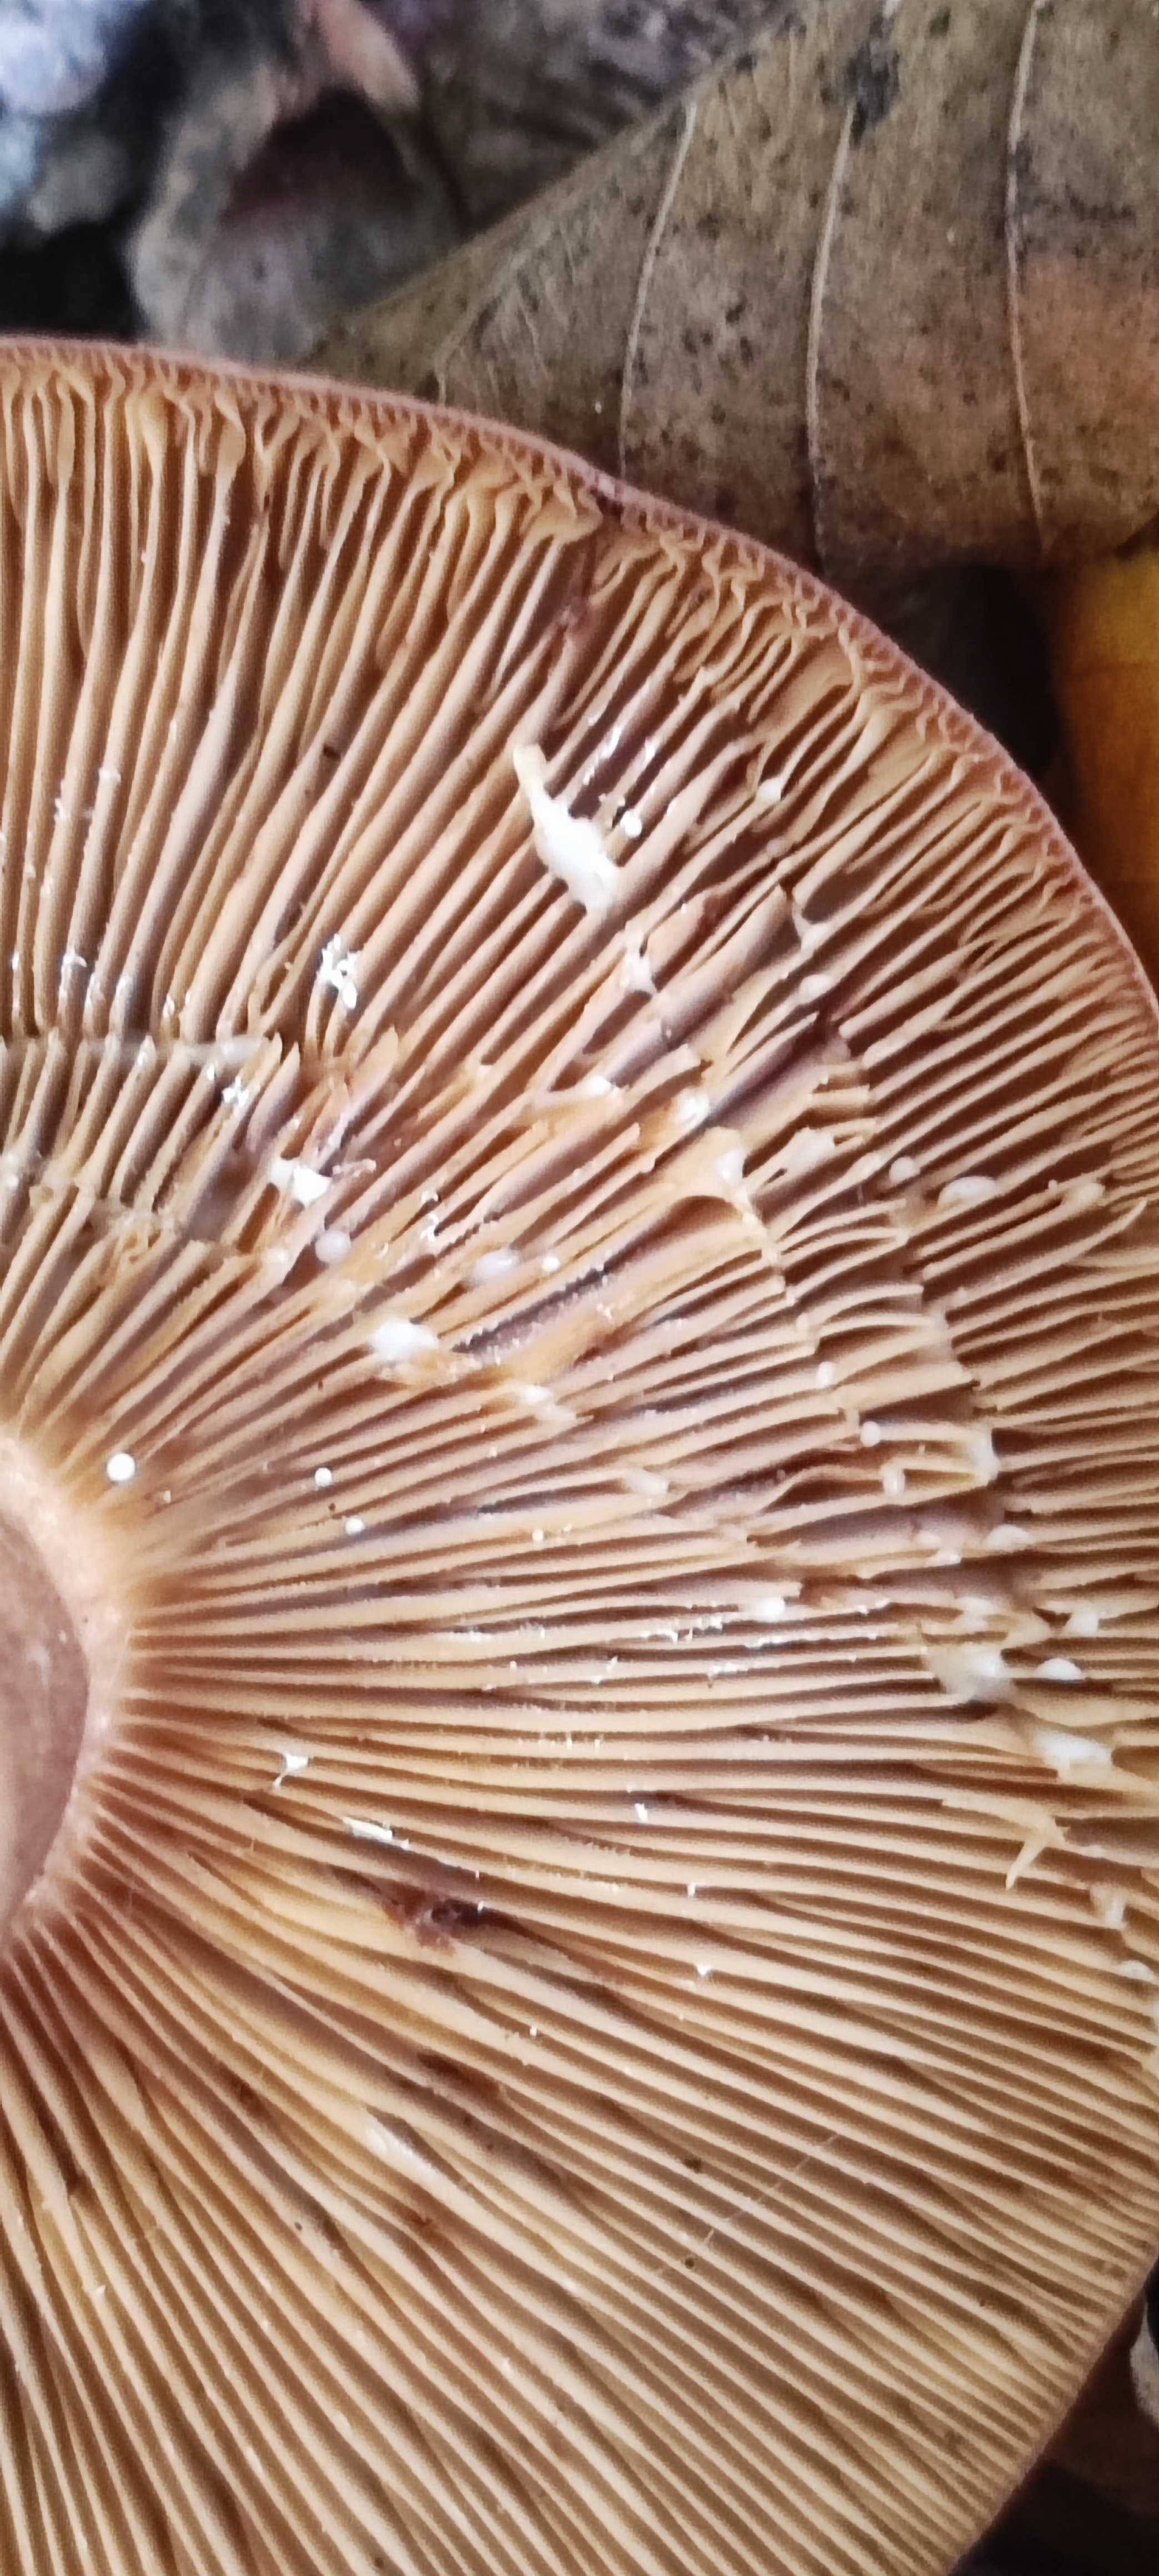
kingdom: Fungi
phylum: Basidiomycota
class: Agaricomycetes
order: Russulales
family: Russulaceae
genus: Lactarius
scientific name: Lactarius quietus
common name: ege-mælkehat
